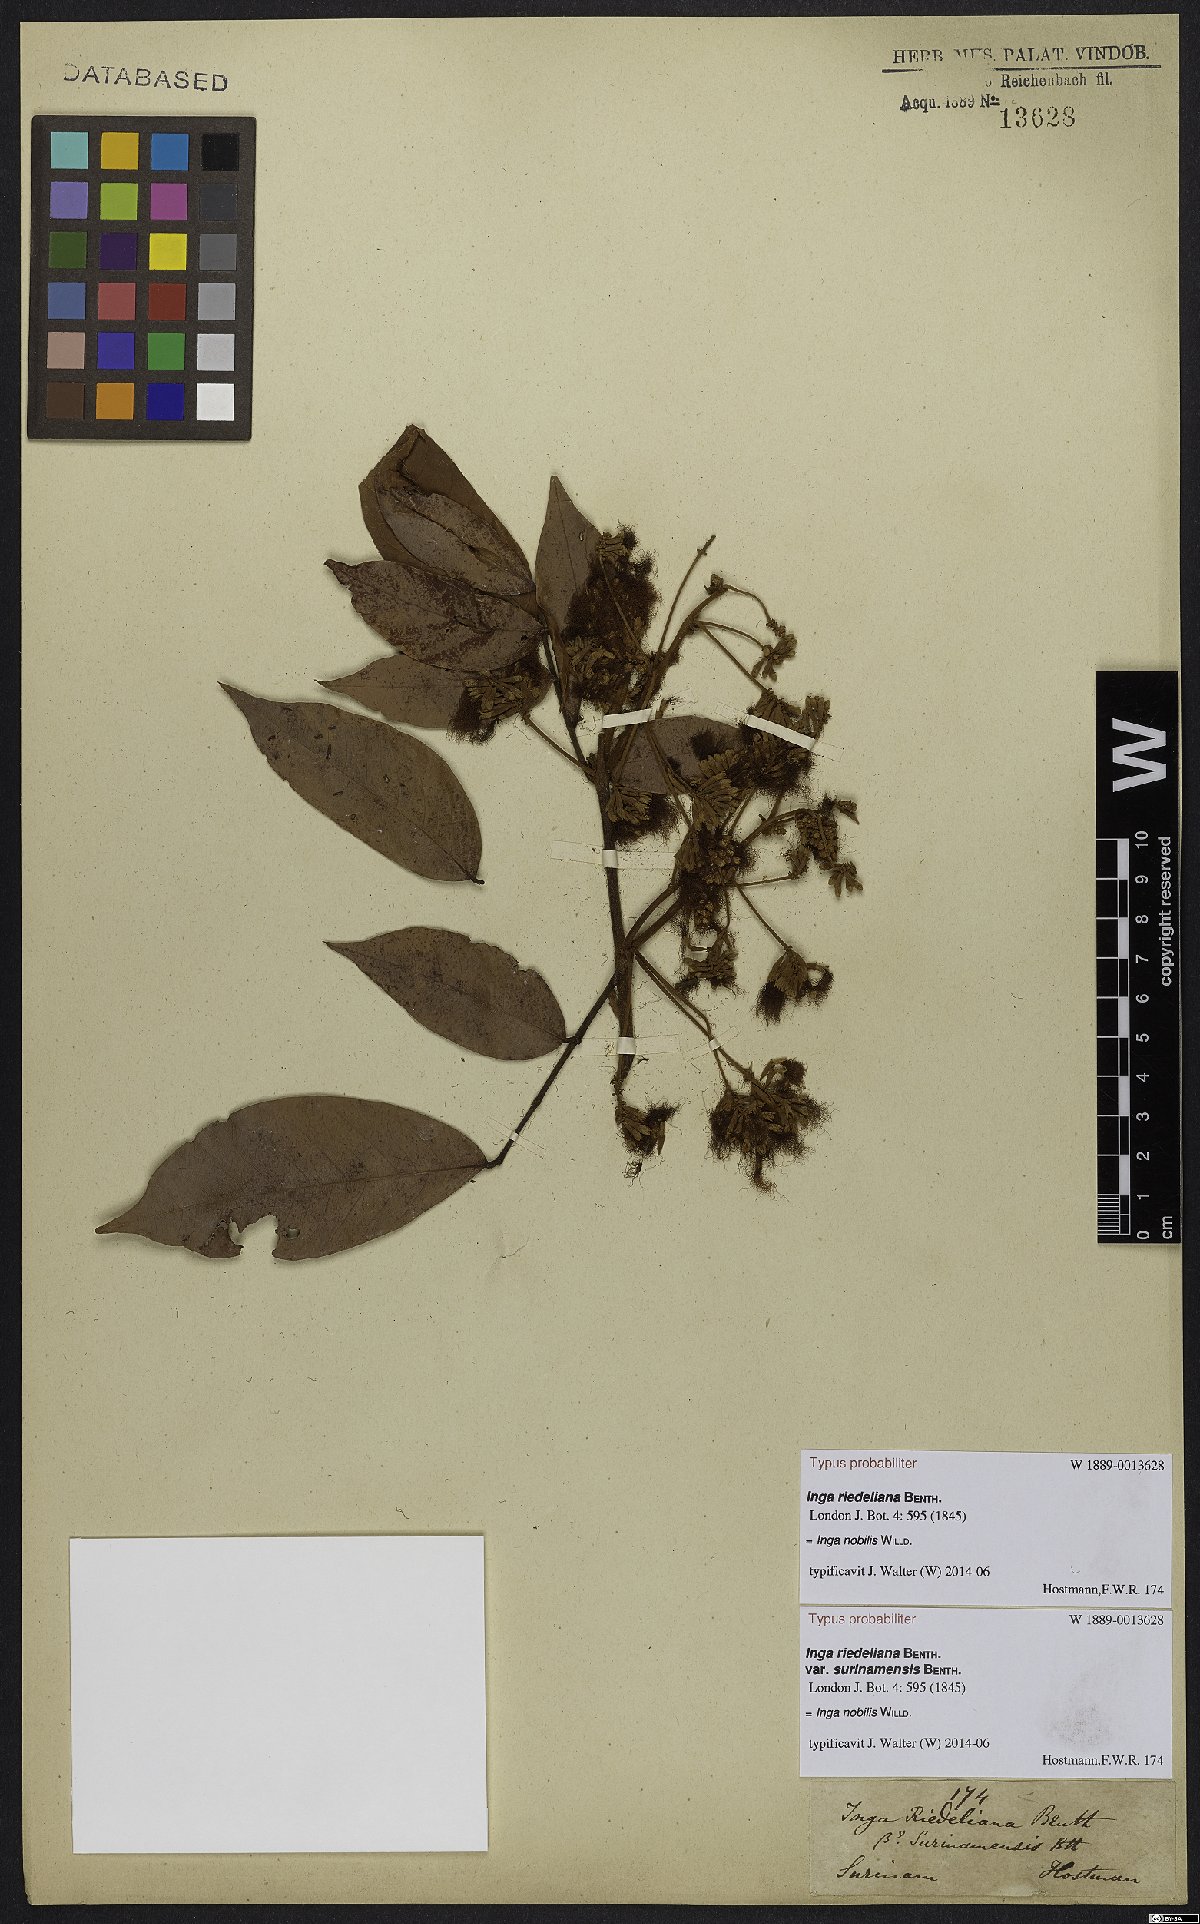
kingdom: Plantae
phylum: Tracheophyta
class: Magnoliopsida
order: Fabales
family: Fabaceae
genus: Inga
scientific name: Inga nobilis
